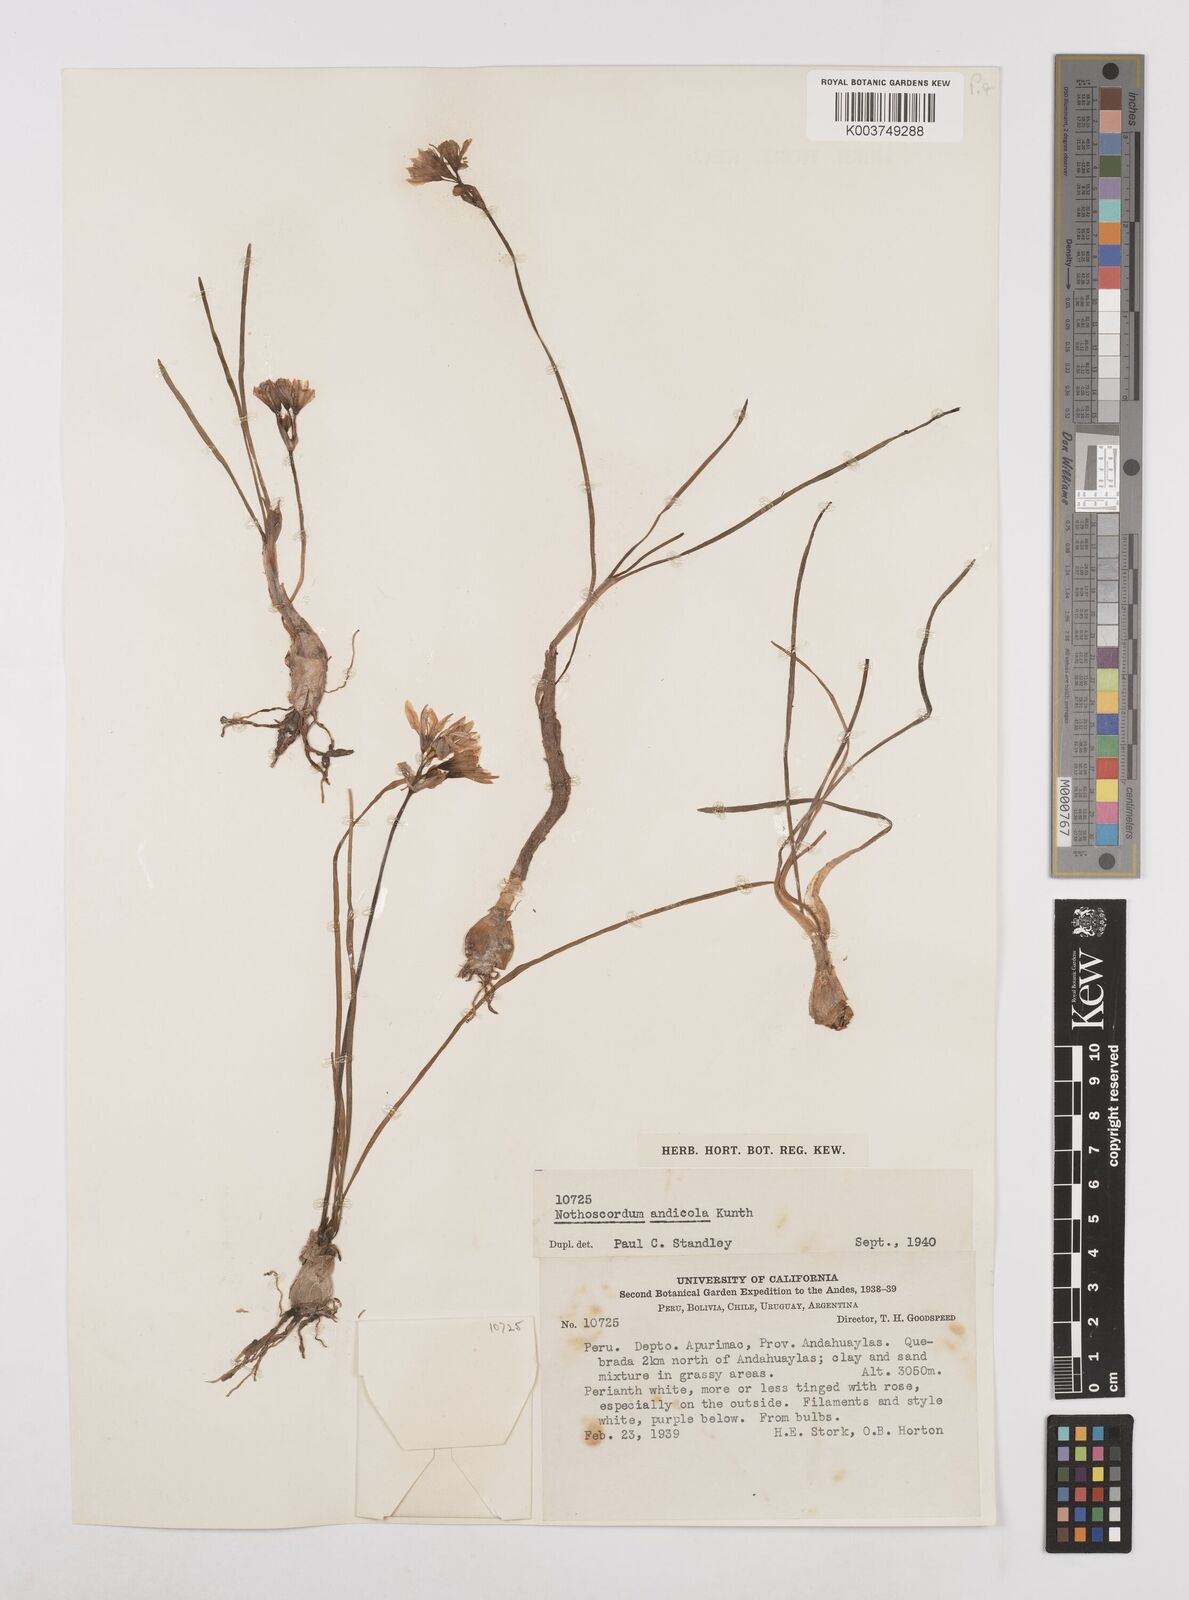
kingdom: Plantae
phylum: Tracheophyta
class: Liliopsida
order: Asparagales
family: Amaryllidaceae
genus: Nothoscordum
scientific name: Nothoscordum andicola
